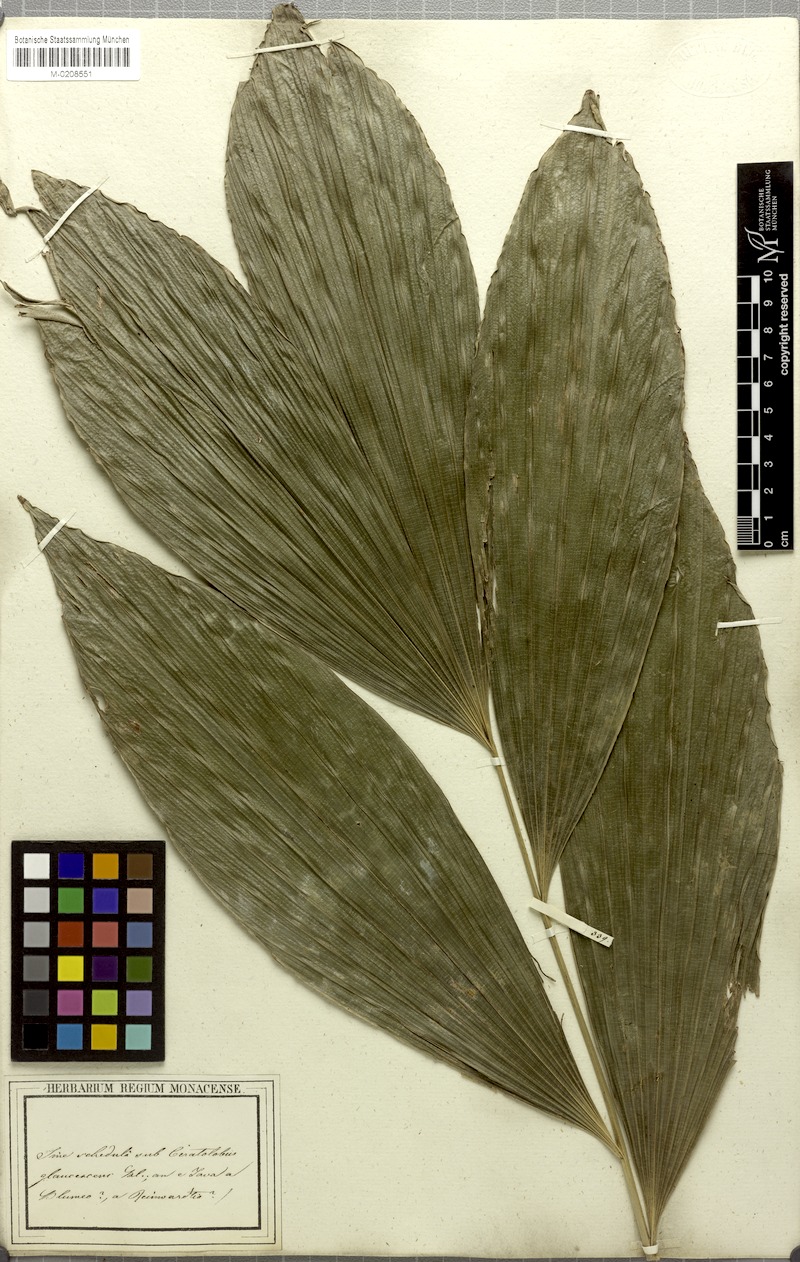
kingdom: Plantae
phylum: Tracheophyta
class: Liliopsida
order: Arecales
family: Arecaceae
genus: Calamus
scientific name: Calamus glaucescens
